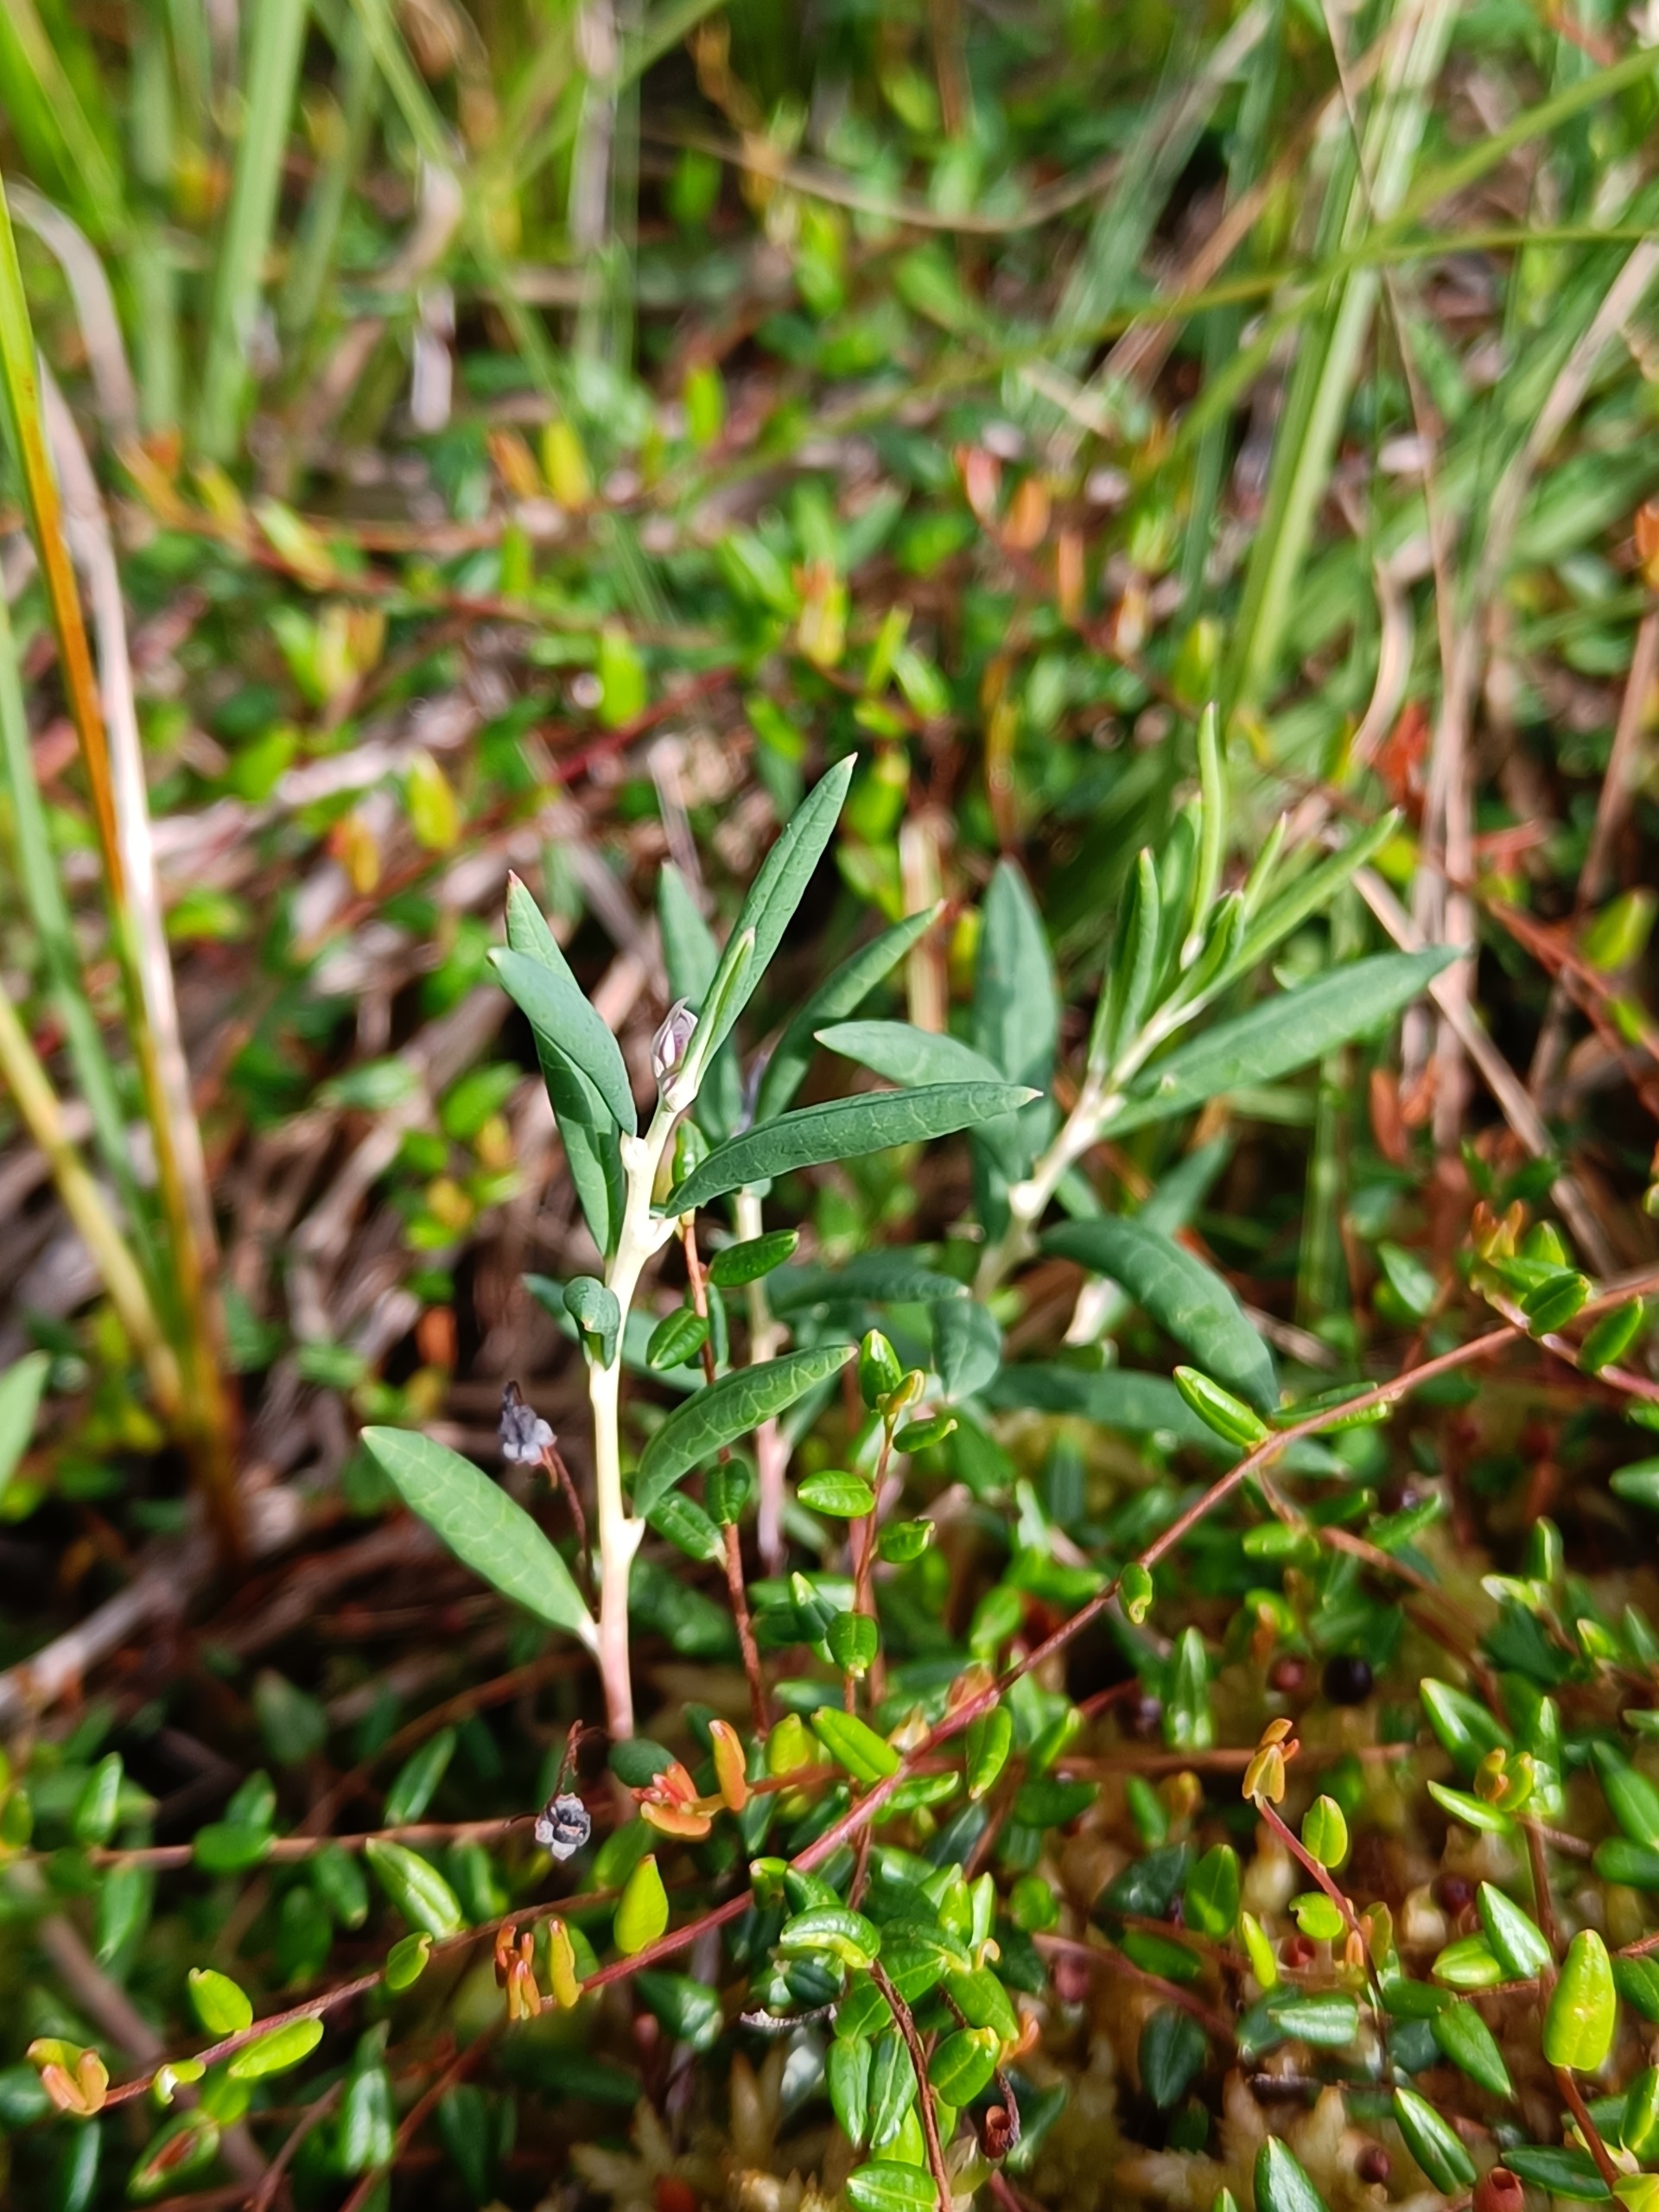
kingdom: Plantae
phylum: Tracheophyta
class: Magnoliopsida
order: Ericales
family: Ericaceae
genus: Andromeda
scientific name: Andromeda polifolia
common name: Rosmarinlyng
